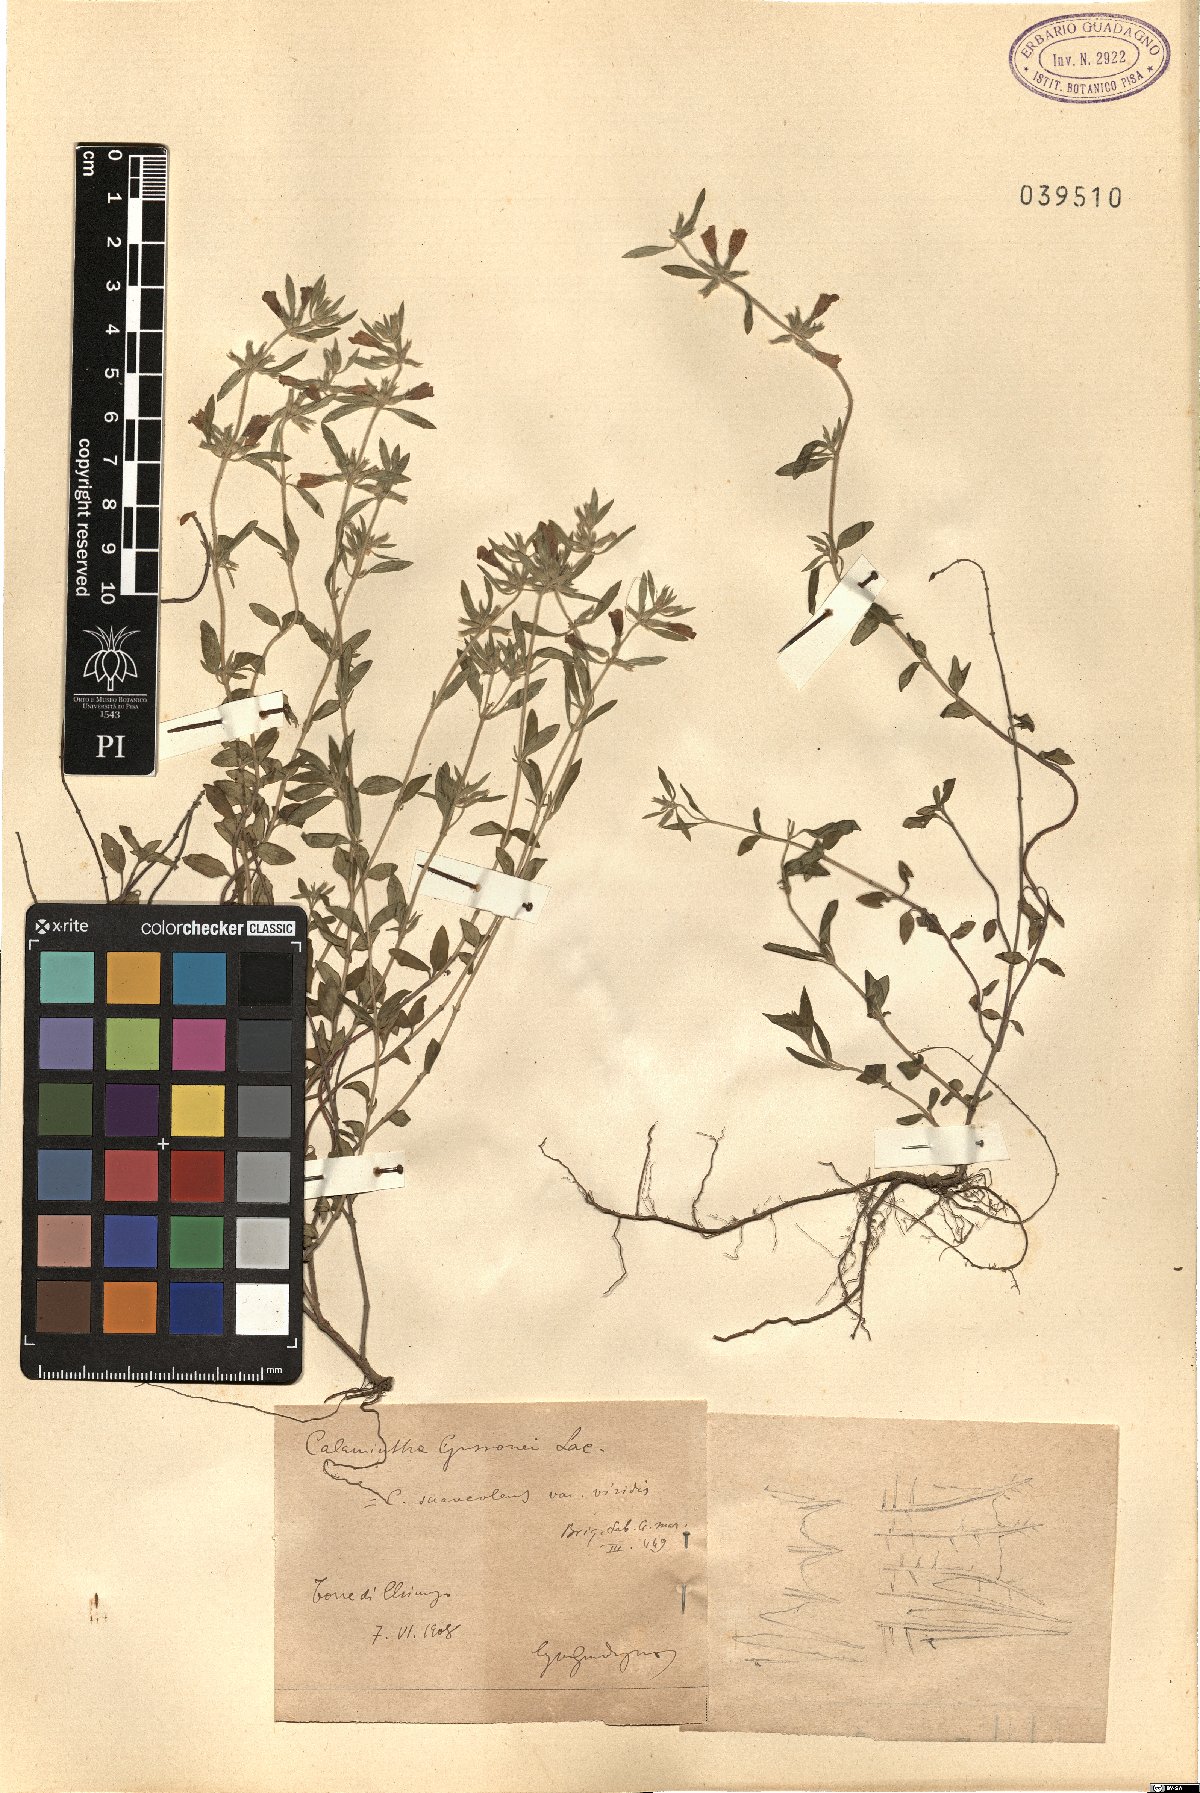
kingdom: Plantae
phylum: Tracheophyta
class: Magnoliopsida
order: Lamiales
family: Lamiaceae
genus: Clinopodium
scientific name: Clinopodium suaveolens
